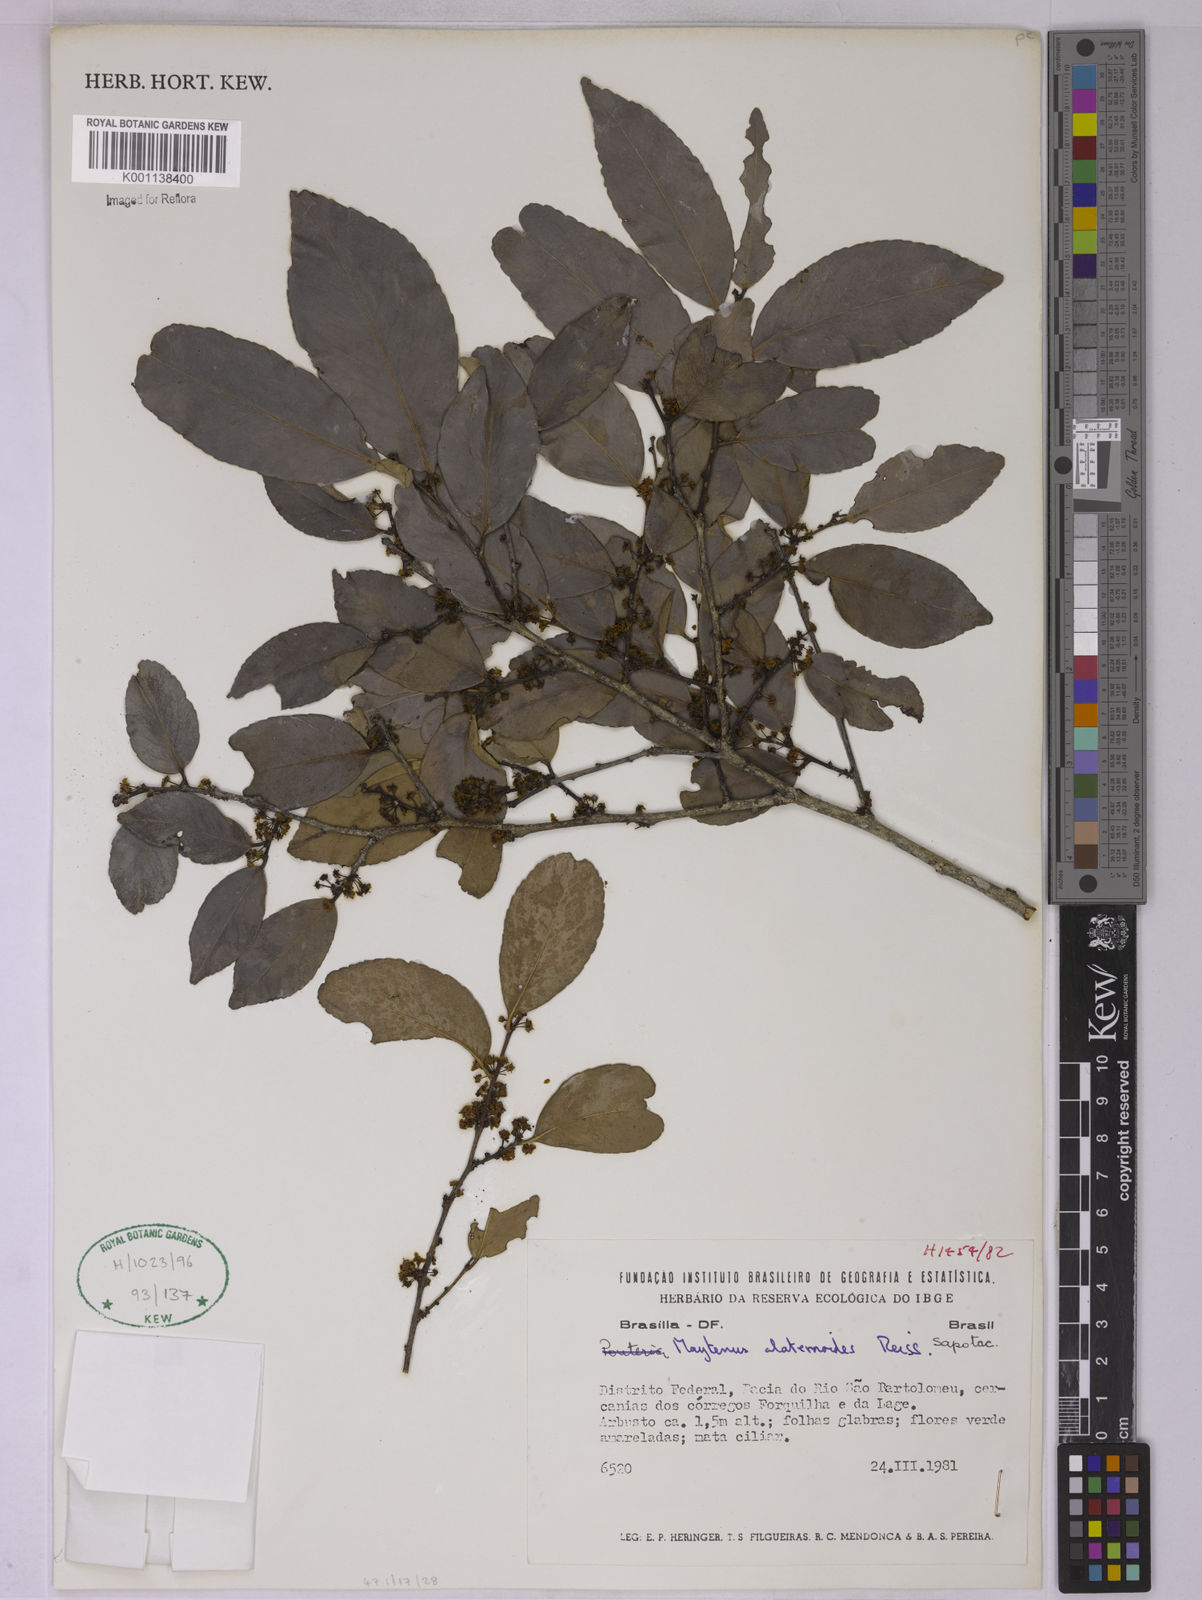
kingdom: Plantae
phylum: Tracheophyta
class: Magnoliopsida
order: Celastrales
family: Celastraceae
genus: Maytenus
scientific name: Maytenus alaternoides
